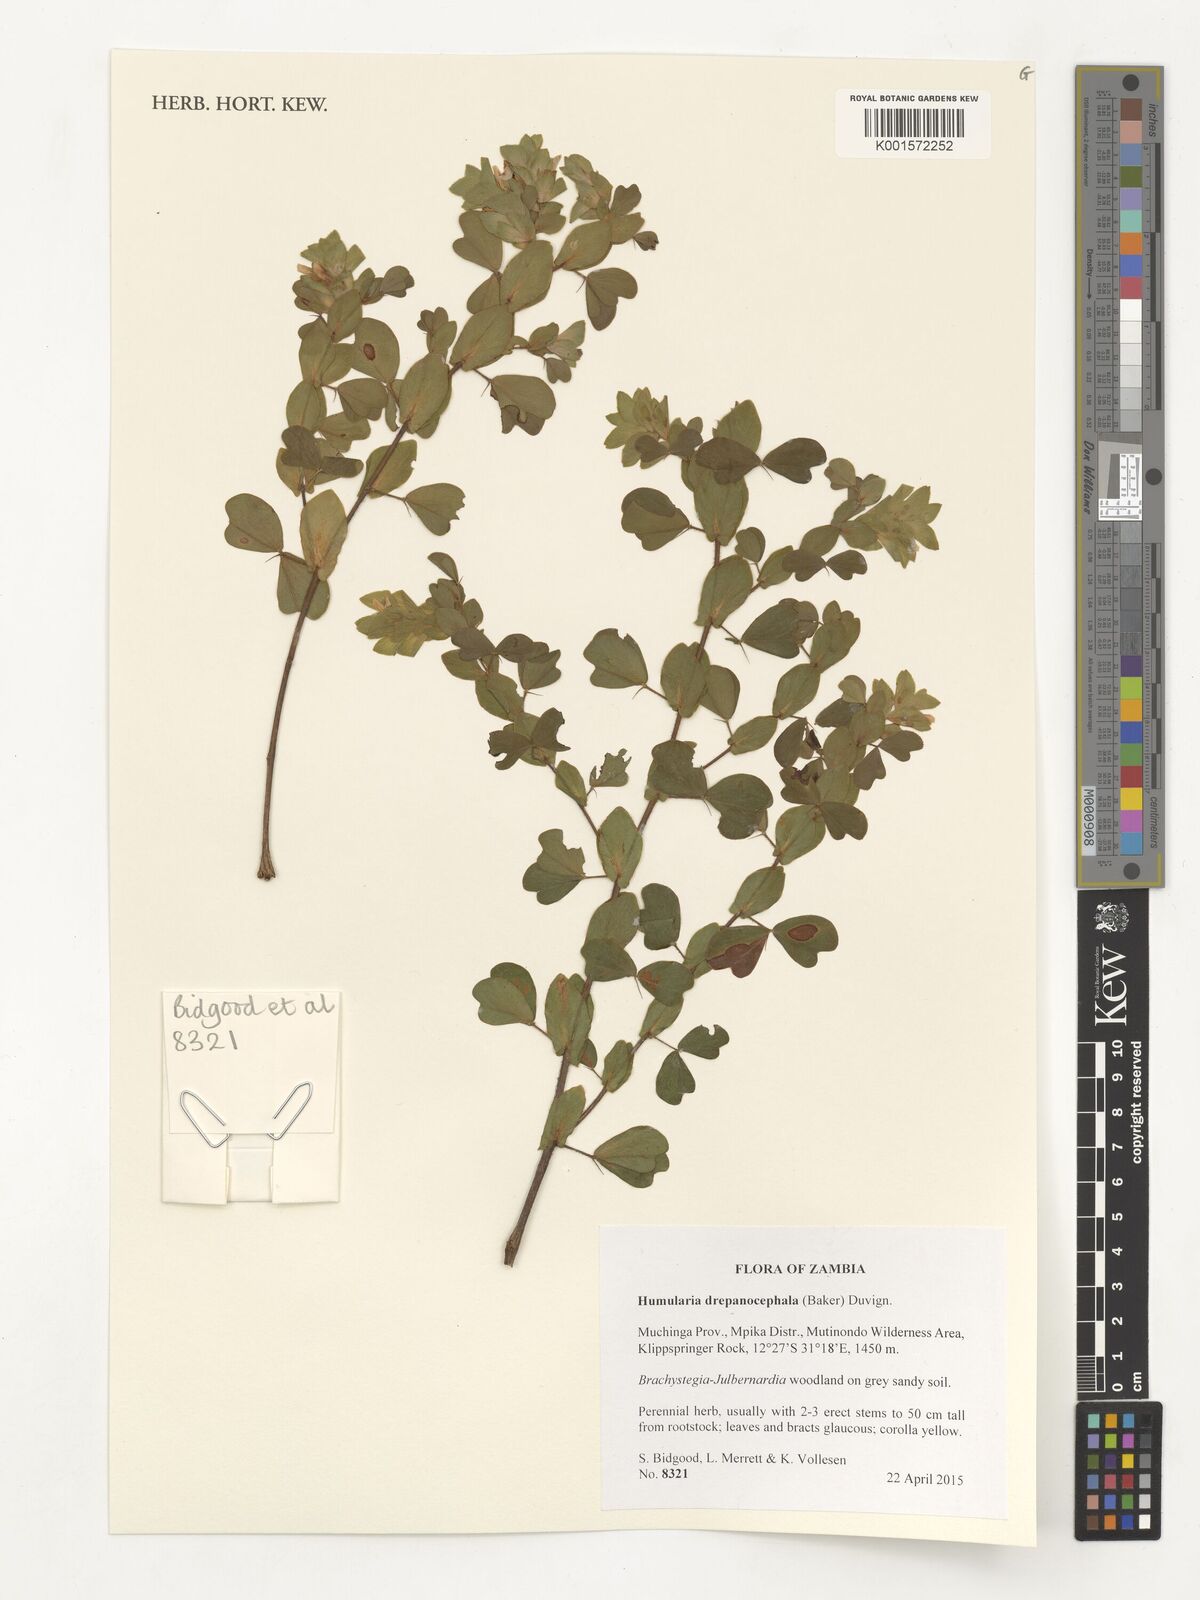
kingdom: Plantae
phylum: Tracheophyta
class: Magnoliopsida
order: Fabales
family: Fabaceae
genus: Humularia
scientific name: Humularia drepanocephala
